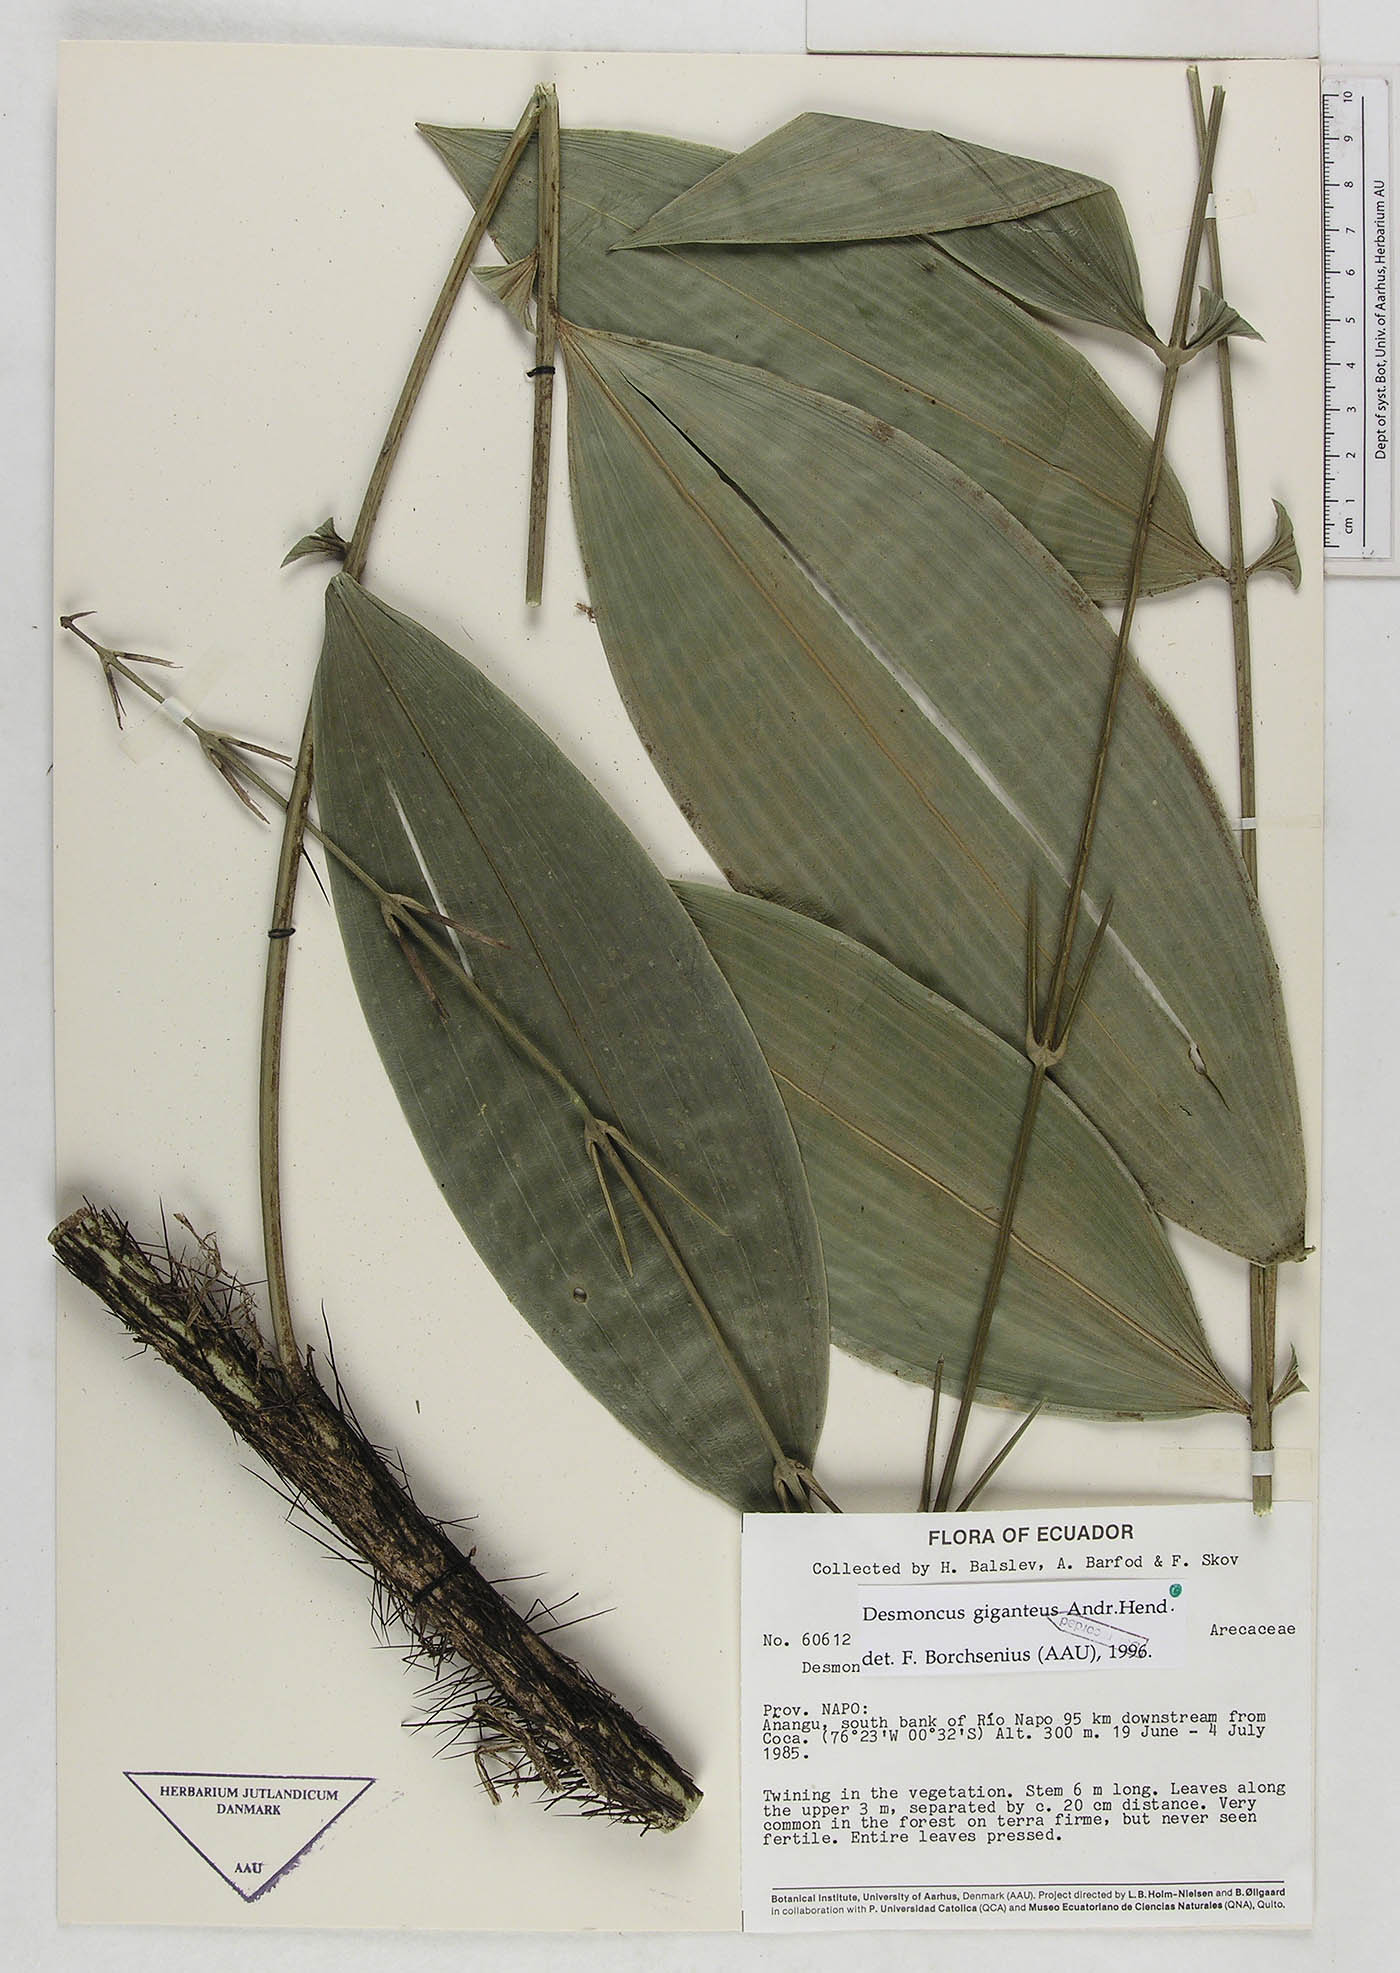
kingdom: Plantae
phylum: Tracheophyta
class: Liliopsida
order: Arecales
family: Arecaceae
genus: Desmoncus
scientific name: Desmoncus giganteus
